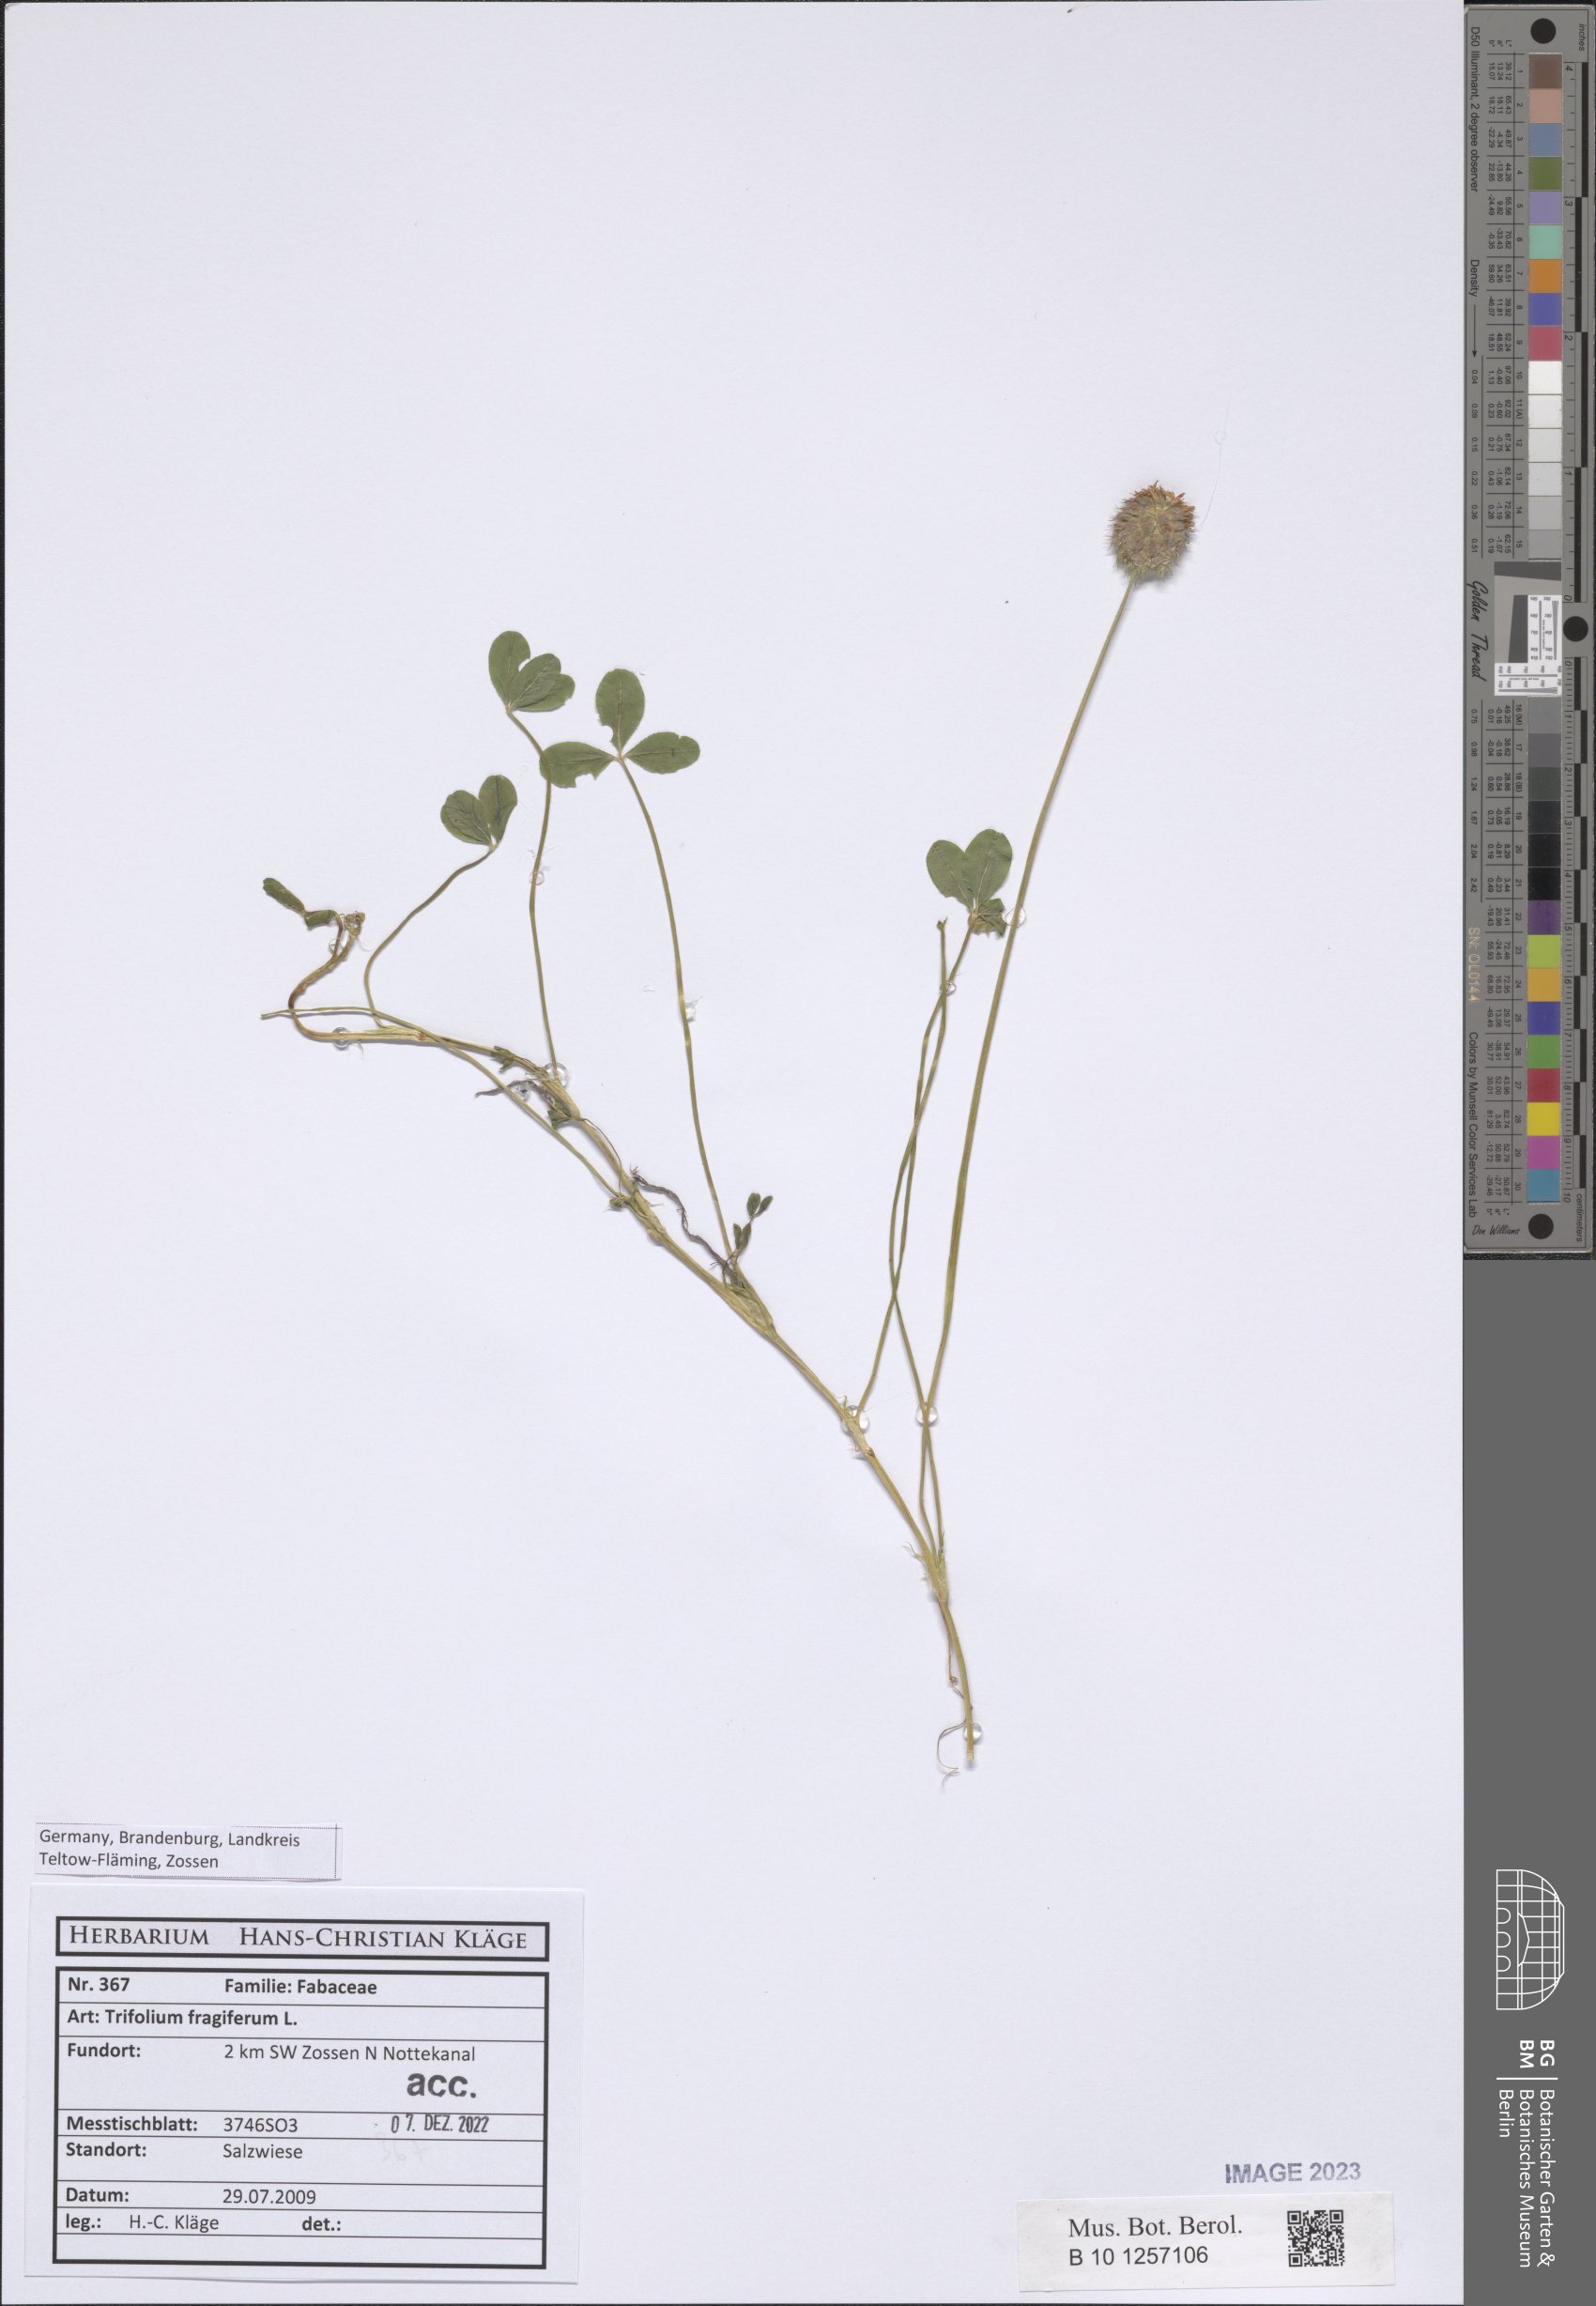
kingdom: Plantae
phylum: Tracheophyta
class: Magnoliopsida
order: Fabales
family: Fabaceae
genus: Trifolium
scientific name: Trifolium fragiferum
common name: Strawberry clover
